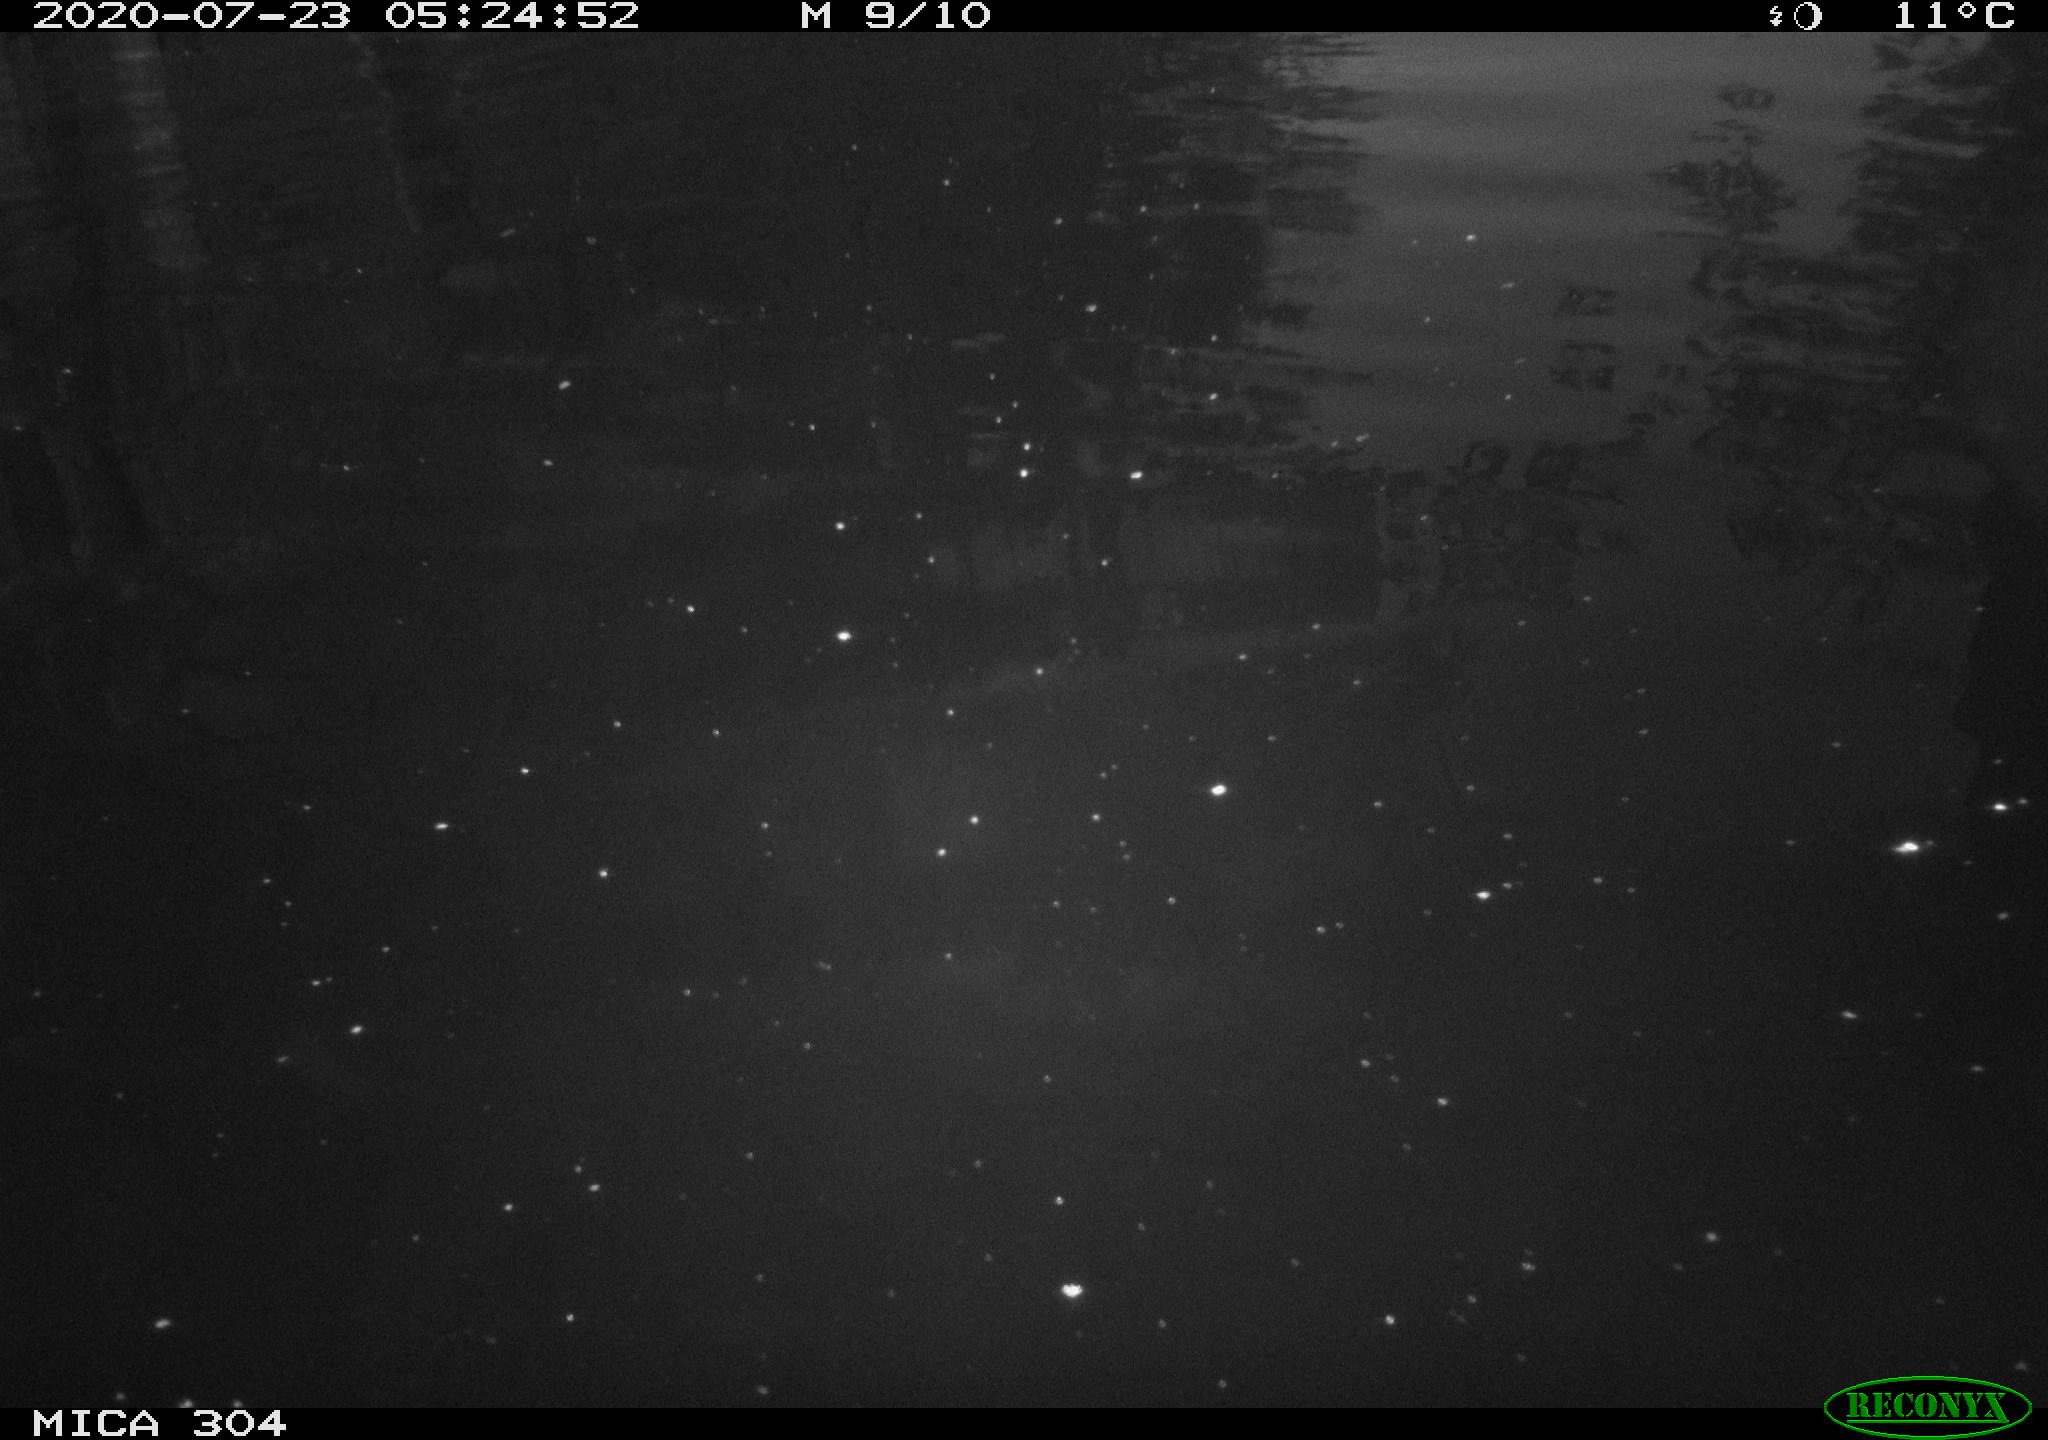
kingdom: Animalia
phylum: Chordata
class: Aves
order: Anseriformes
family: Anatidae
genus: Anas
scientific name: Anas platyrhynchos
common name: Mallard
